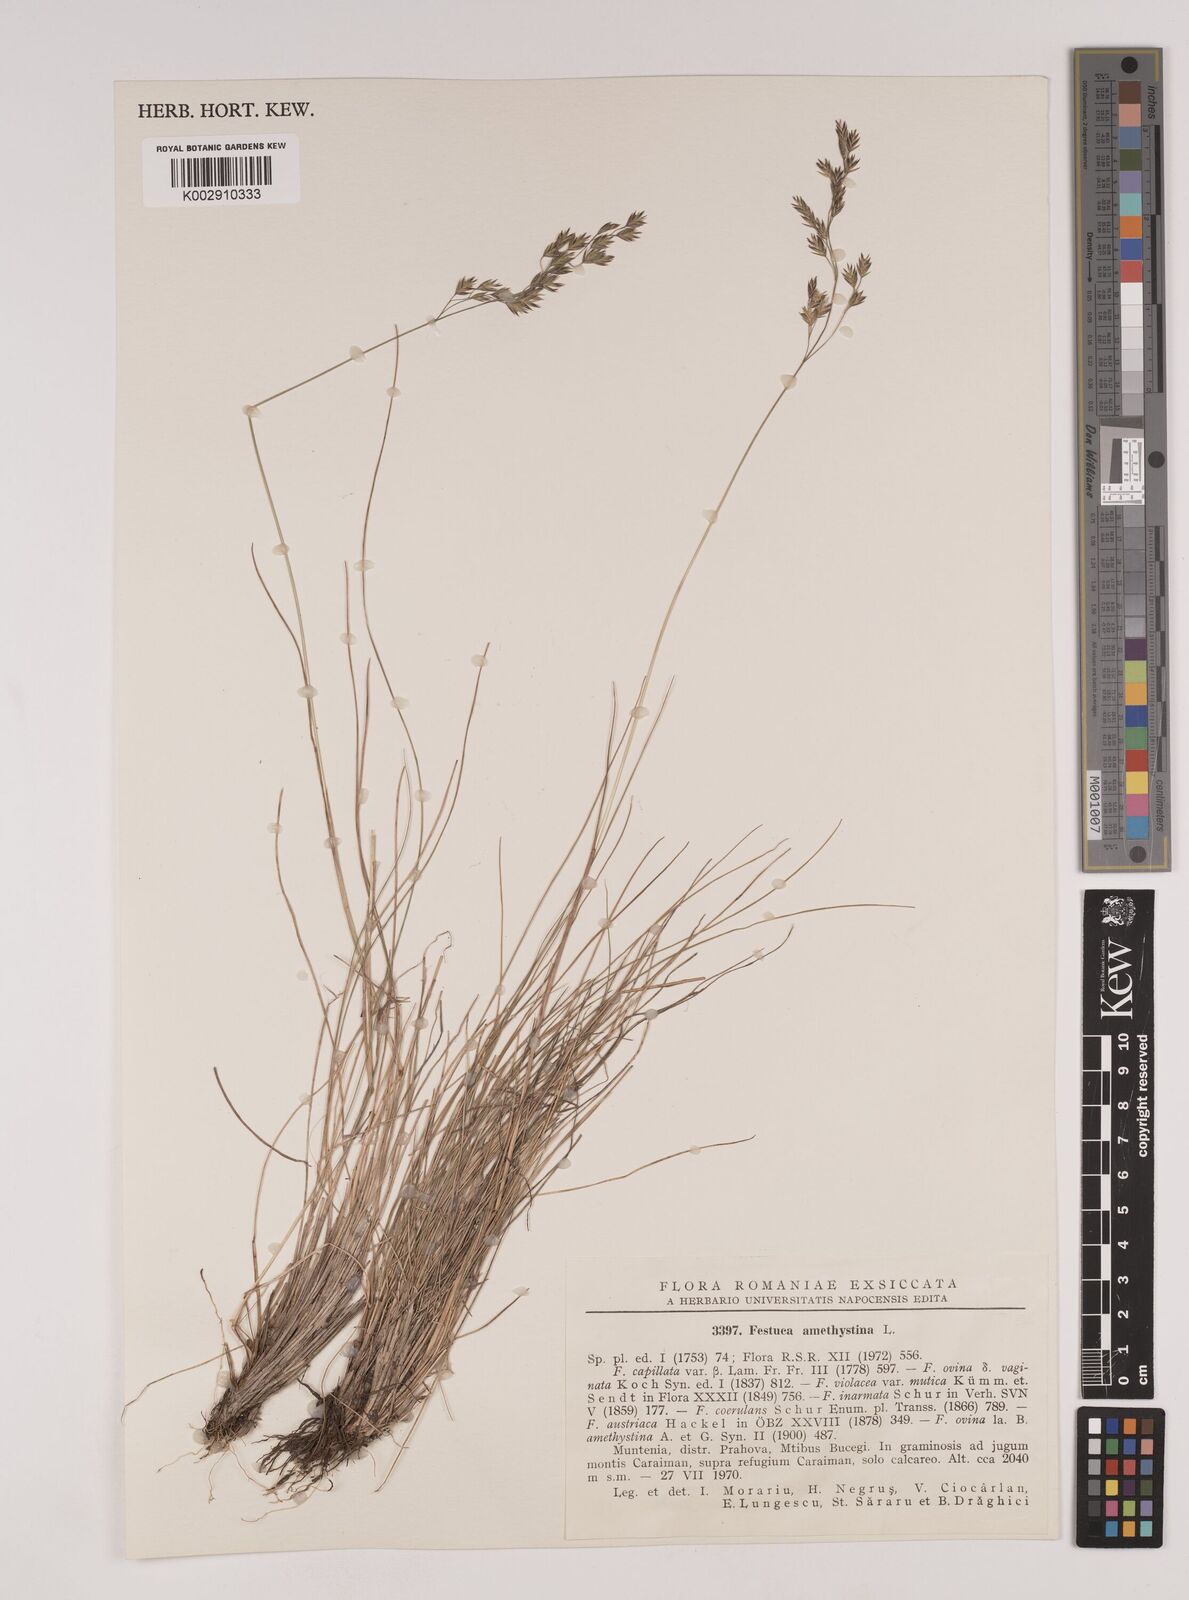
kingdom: Plantae
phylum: Tracheophyta
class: Liliopsida
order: Poales
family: Poaceae
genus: Festuca
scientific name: Festuca amethystina
